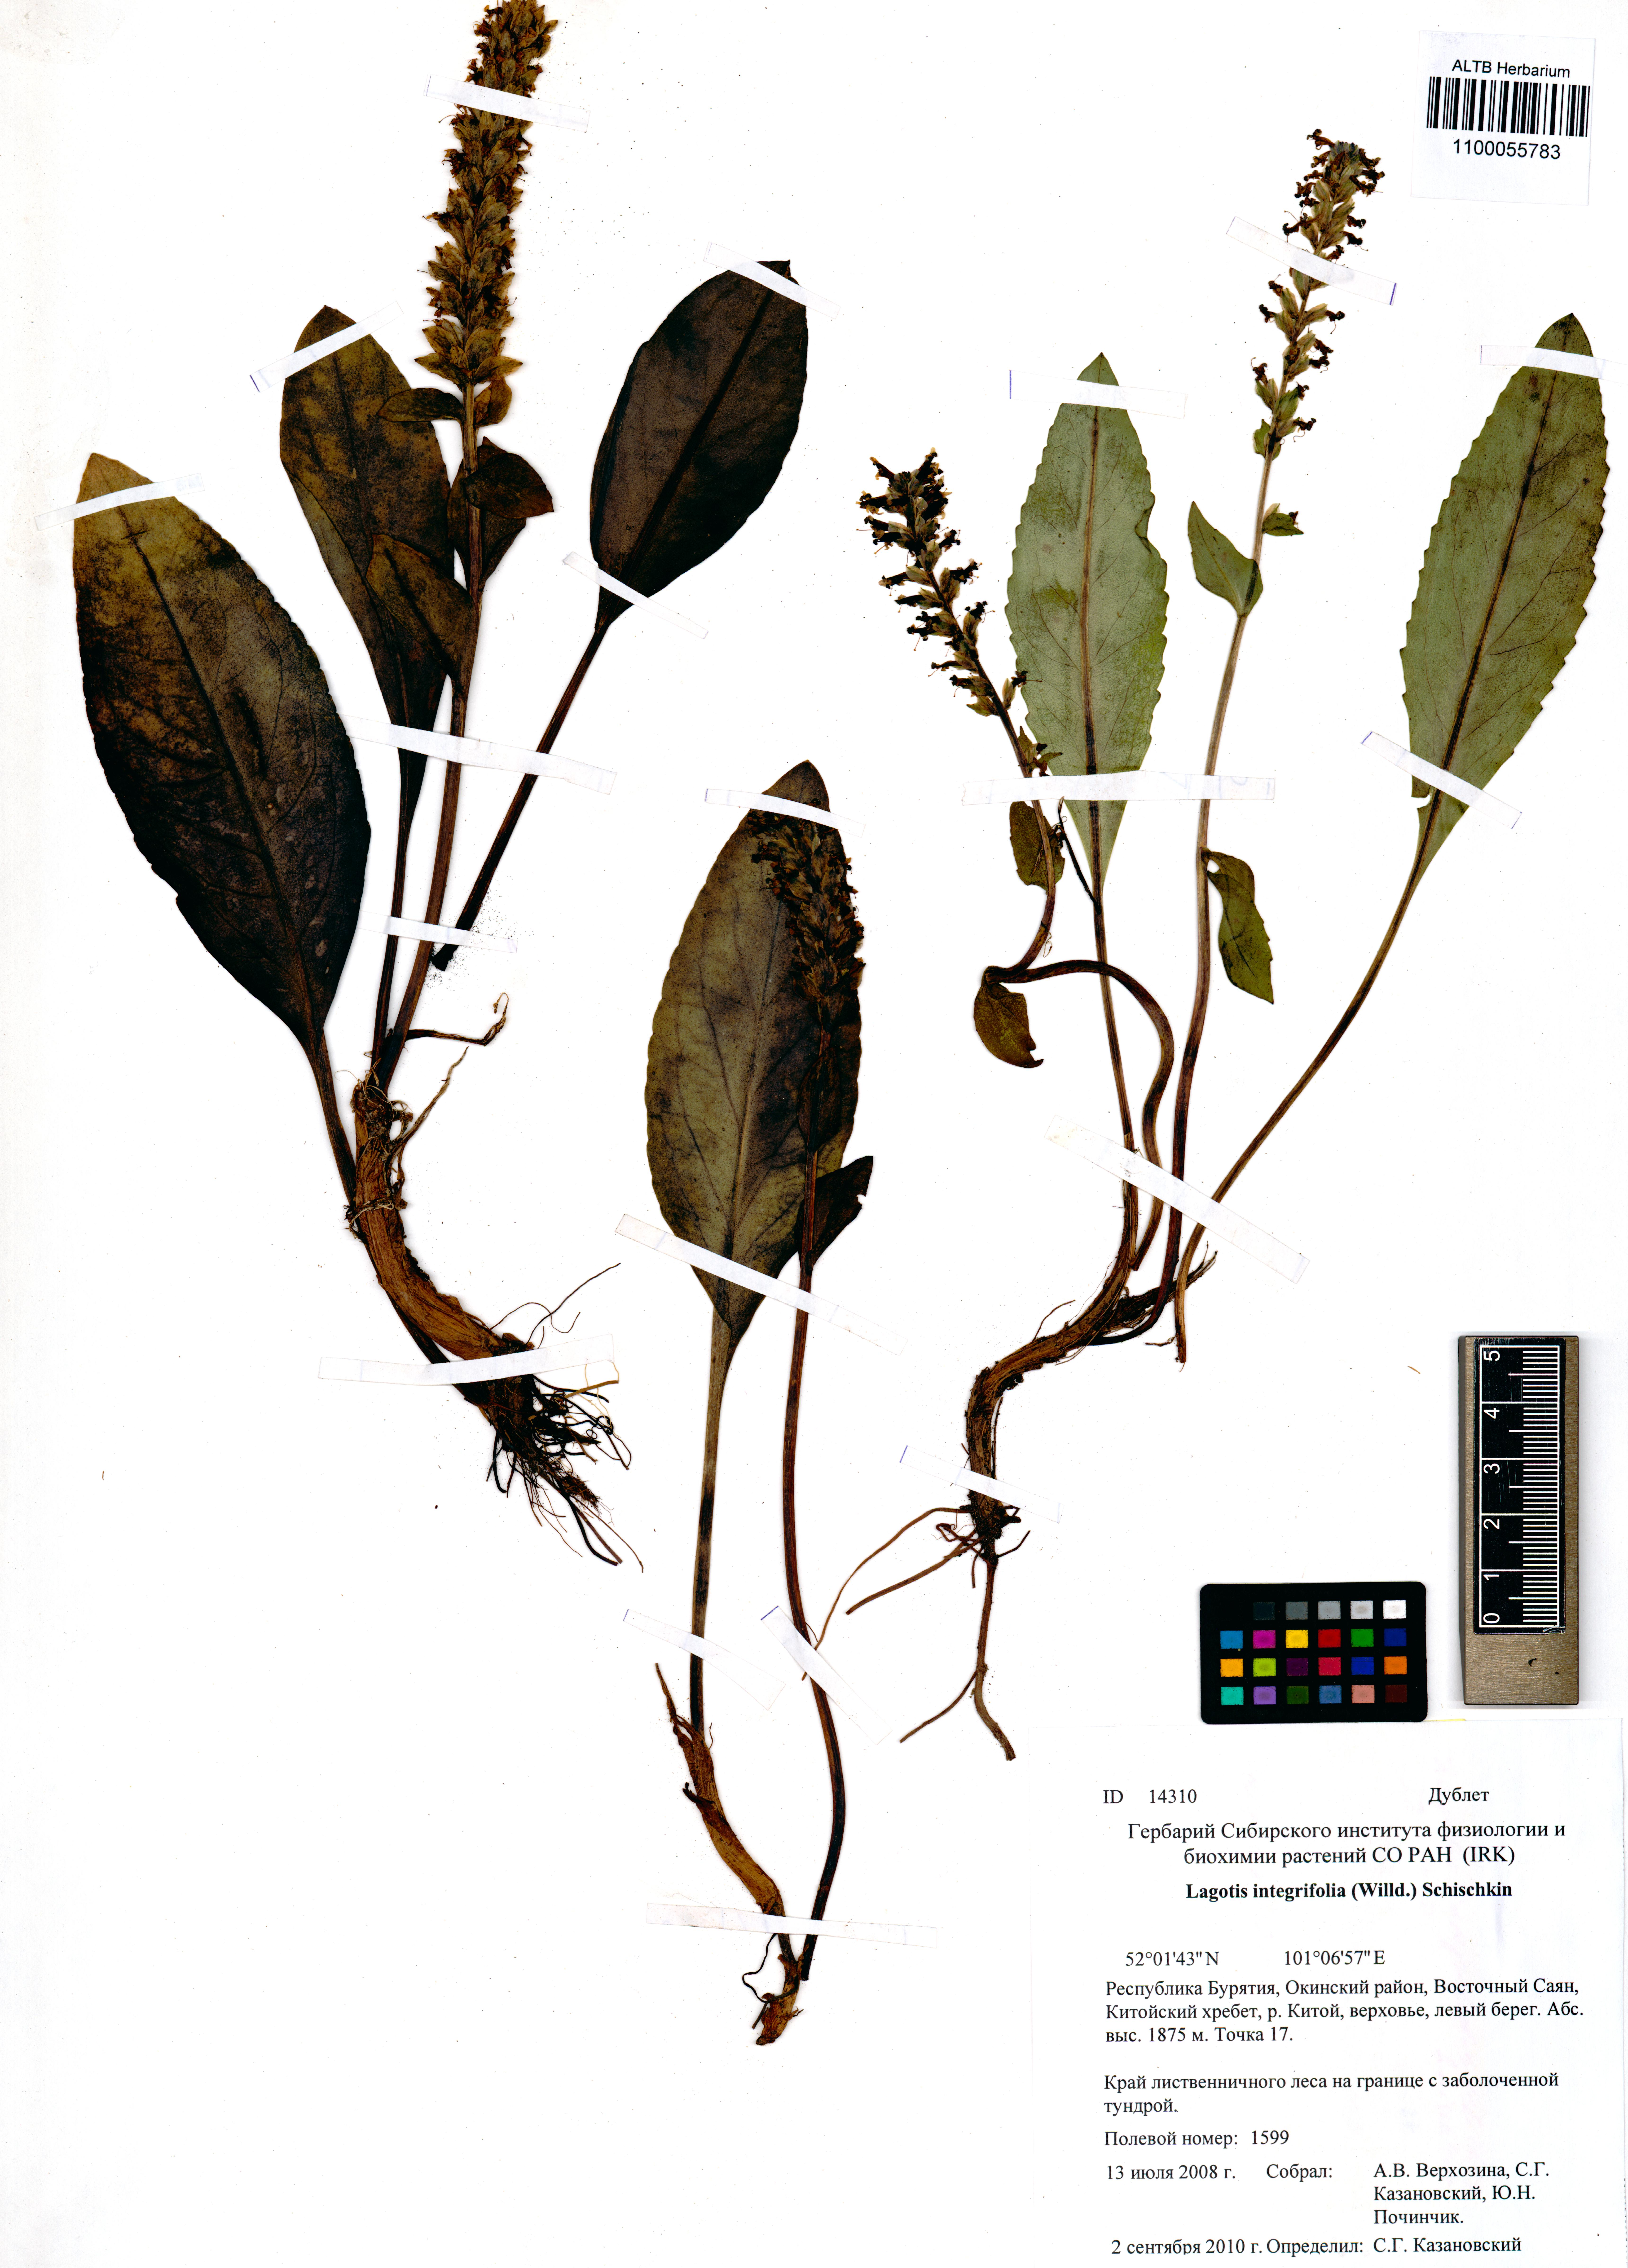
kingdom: Plantae
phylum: Tracheophyta
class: Magnoliopsida
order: Lamiales
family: Plantaginaceae
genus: Lagotis
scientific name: Lagotis integrifolia
